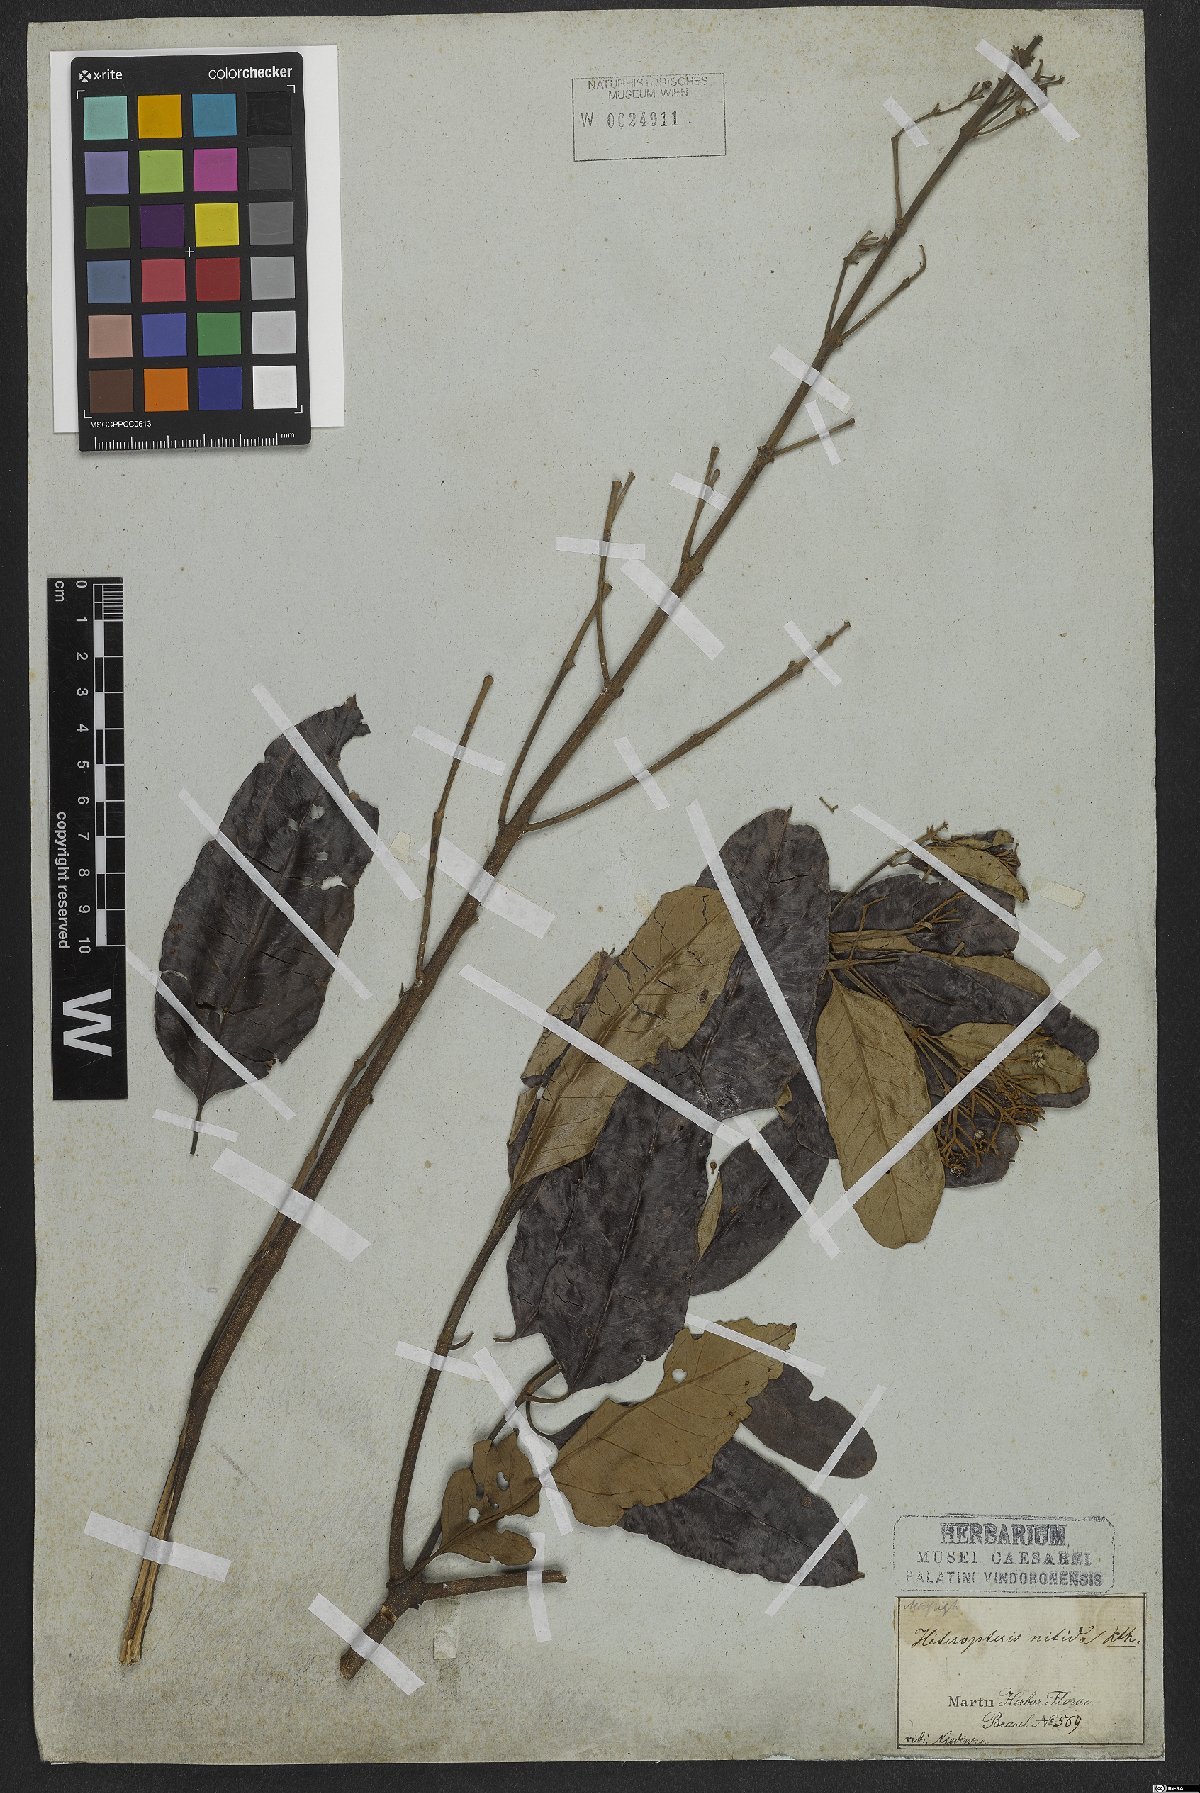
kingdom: Plantae
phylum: Tracheophyta
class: Magnoliopsida
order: Malpighiales
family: Malpighiaceae
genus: Heteropterys
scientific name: Heteropterys nitida
